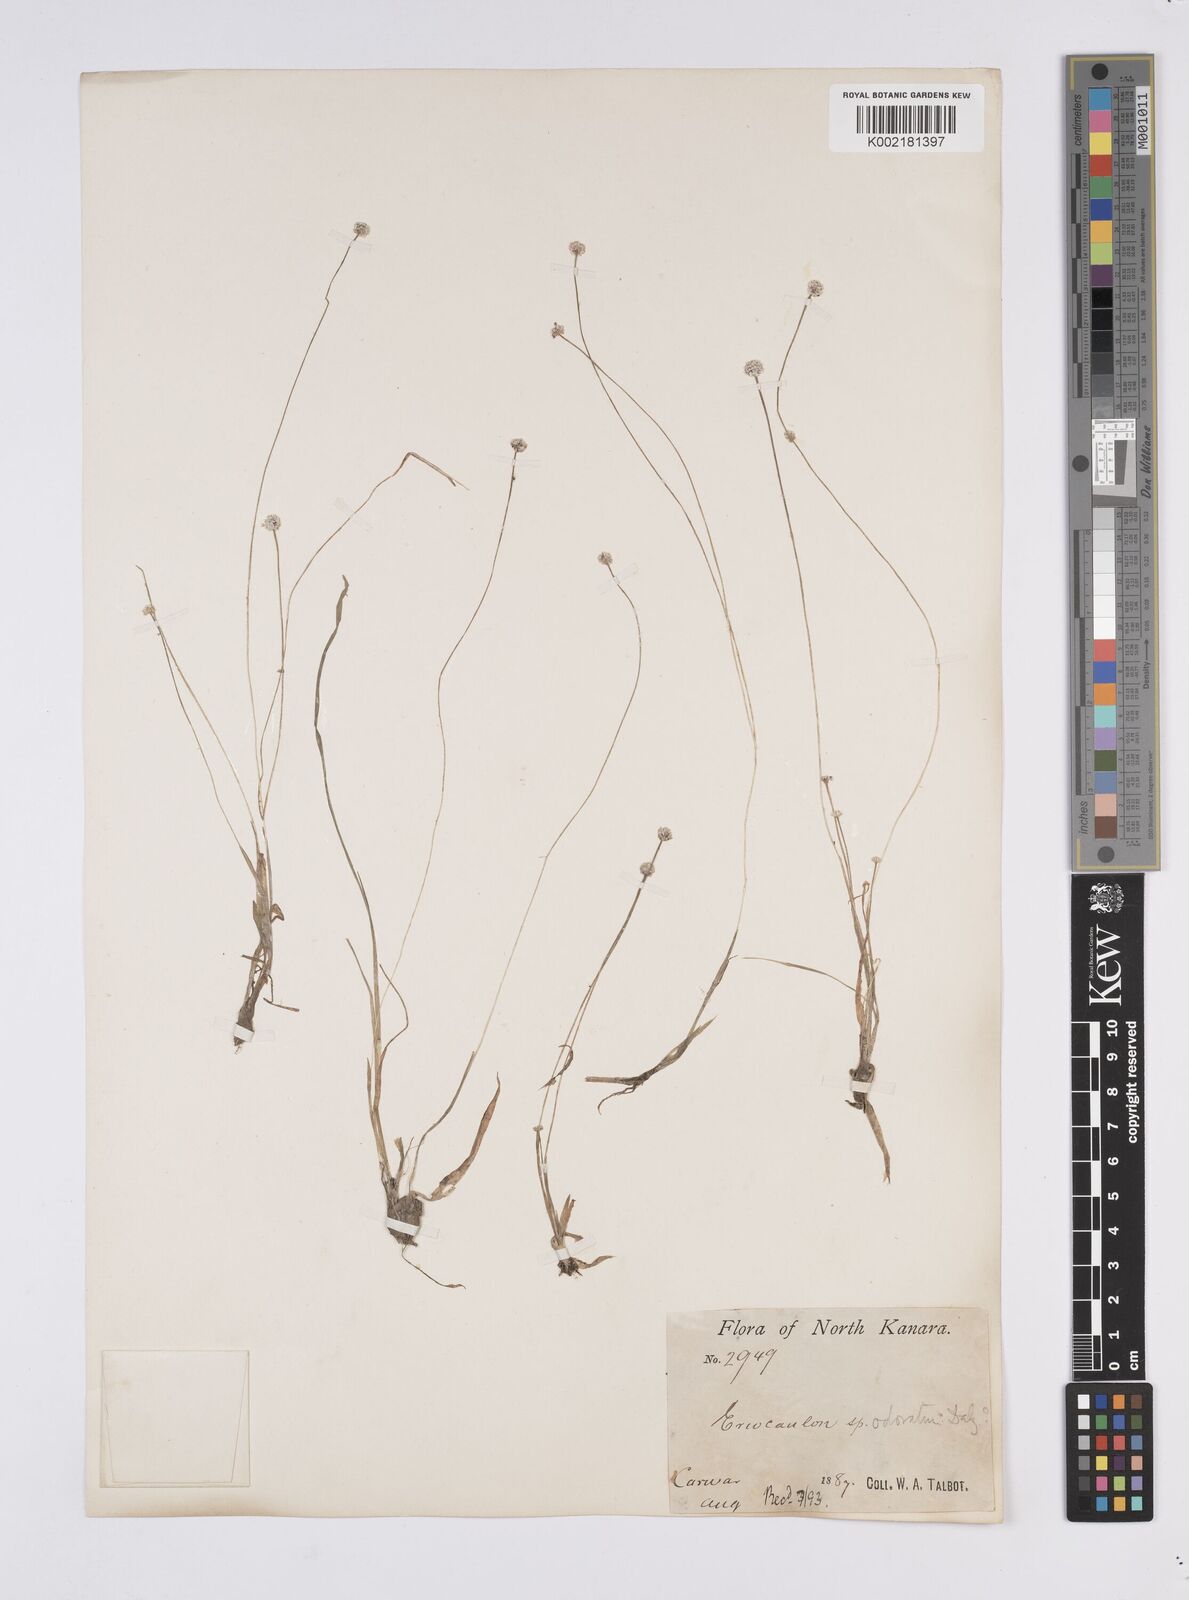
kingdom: Plantae
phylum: Tracheophyta
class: Liliopsida
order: Poales
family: Eriocaulaceae
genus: Eriocaulon
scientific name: Eriocaulon odoratum
